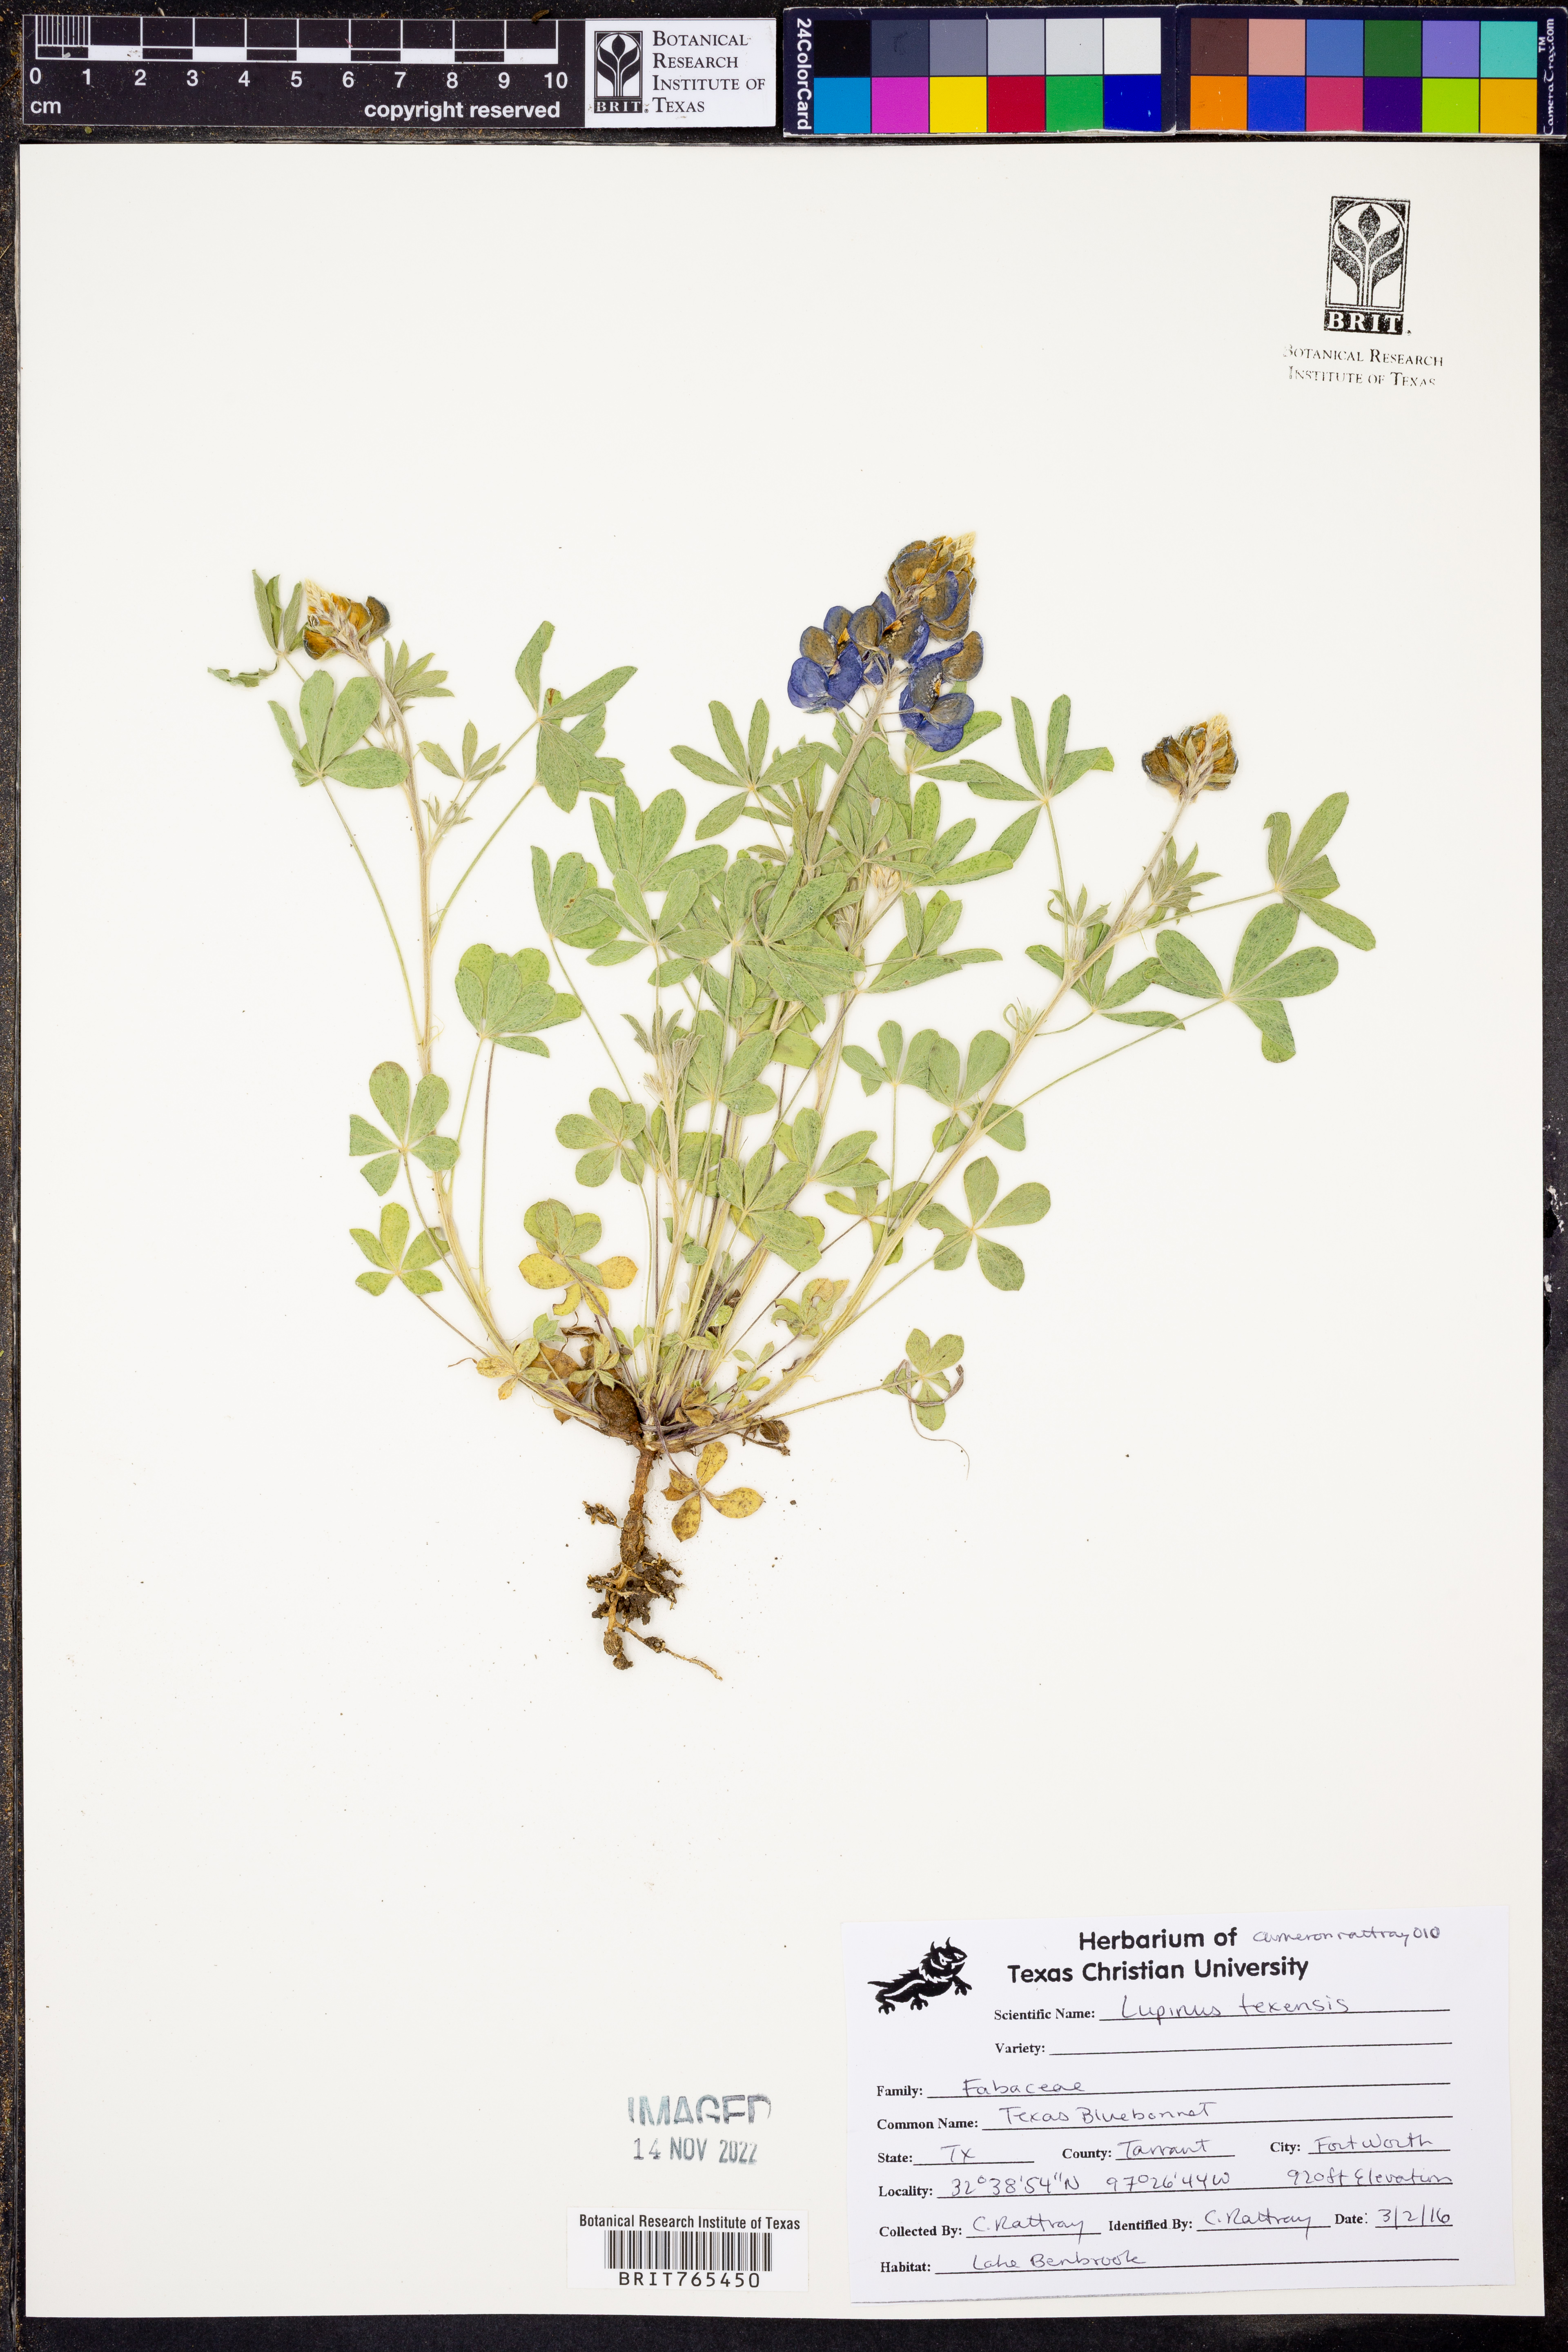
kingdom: Plantae
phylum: Tracheophyta
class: Magnoliopsida
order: Fabales
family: Fabaceae
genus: Lupinus
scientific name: Lupinus texensis
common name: Texas bluebonnet
